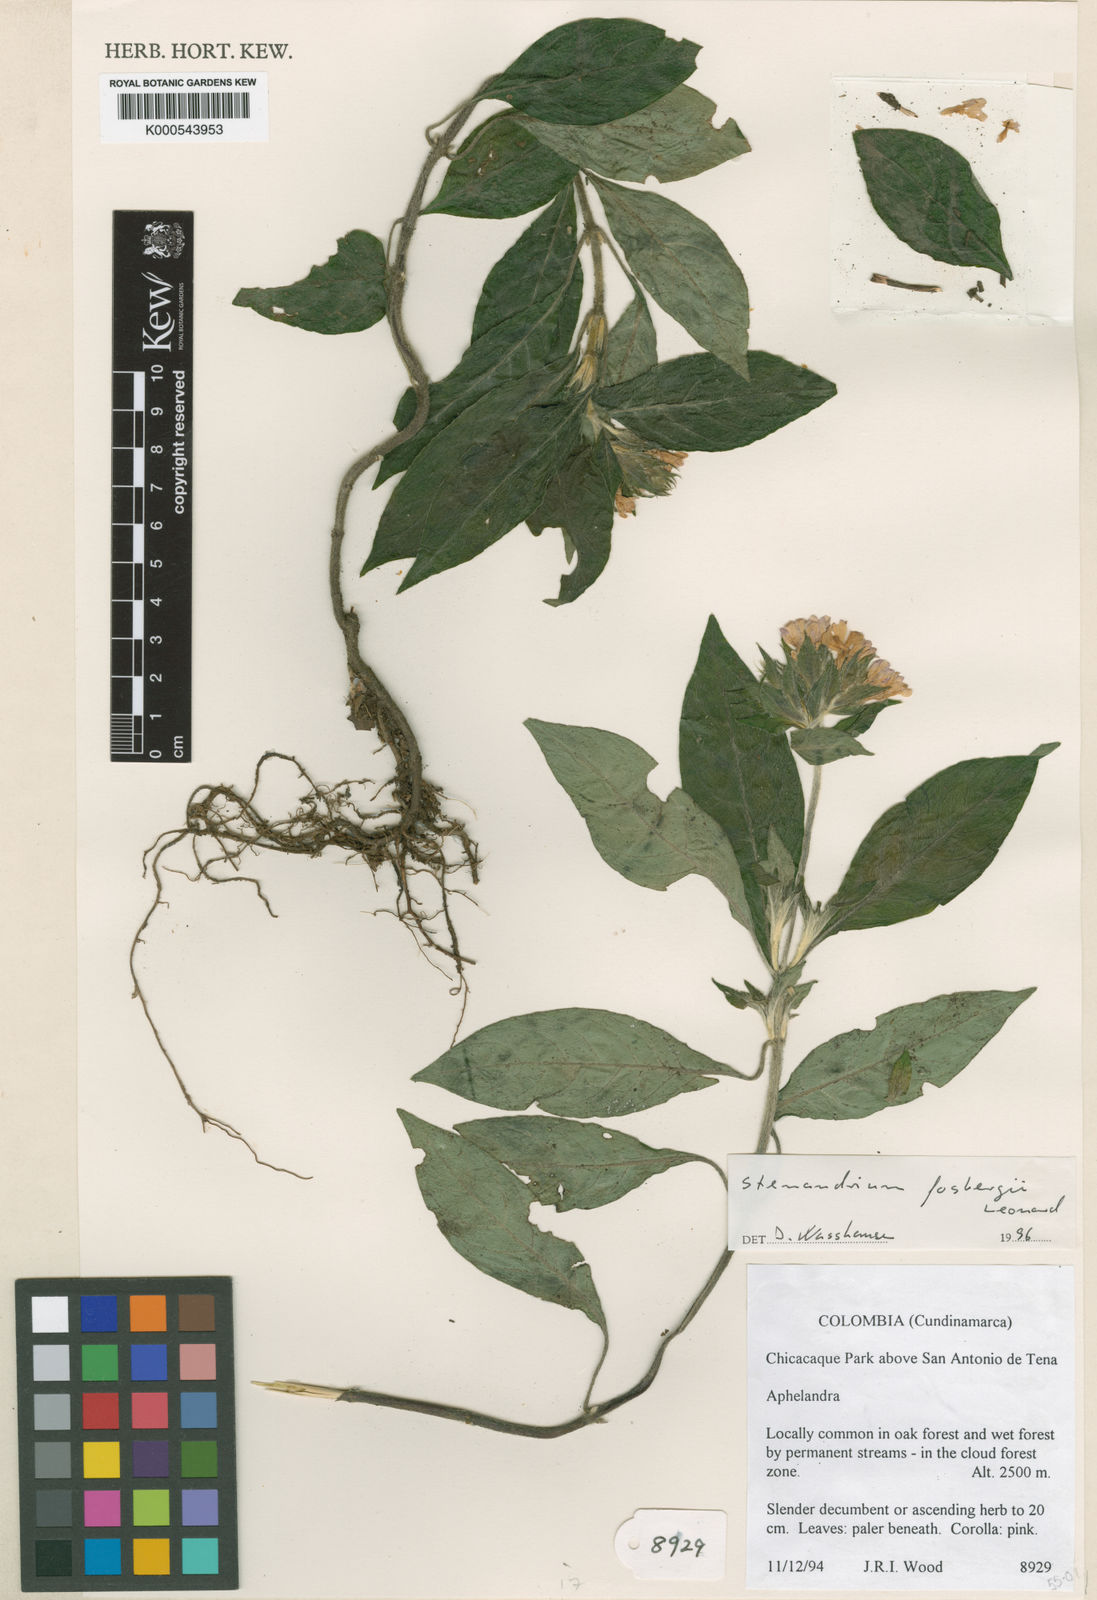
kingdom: Plantae
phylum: Tracheophyta
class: Magnoliopsida
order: Lamiales
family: Acanthaceae
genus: Stenandrium
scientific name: Stenandrium fosbergii
